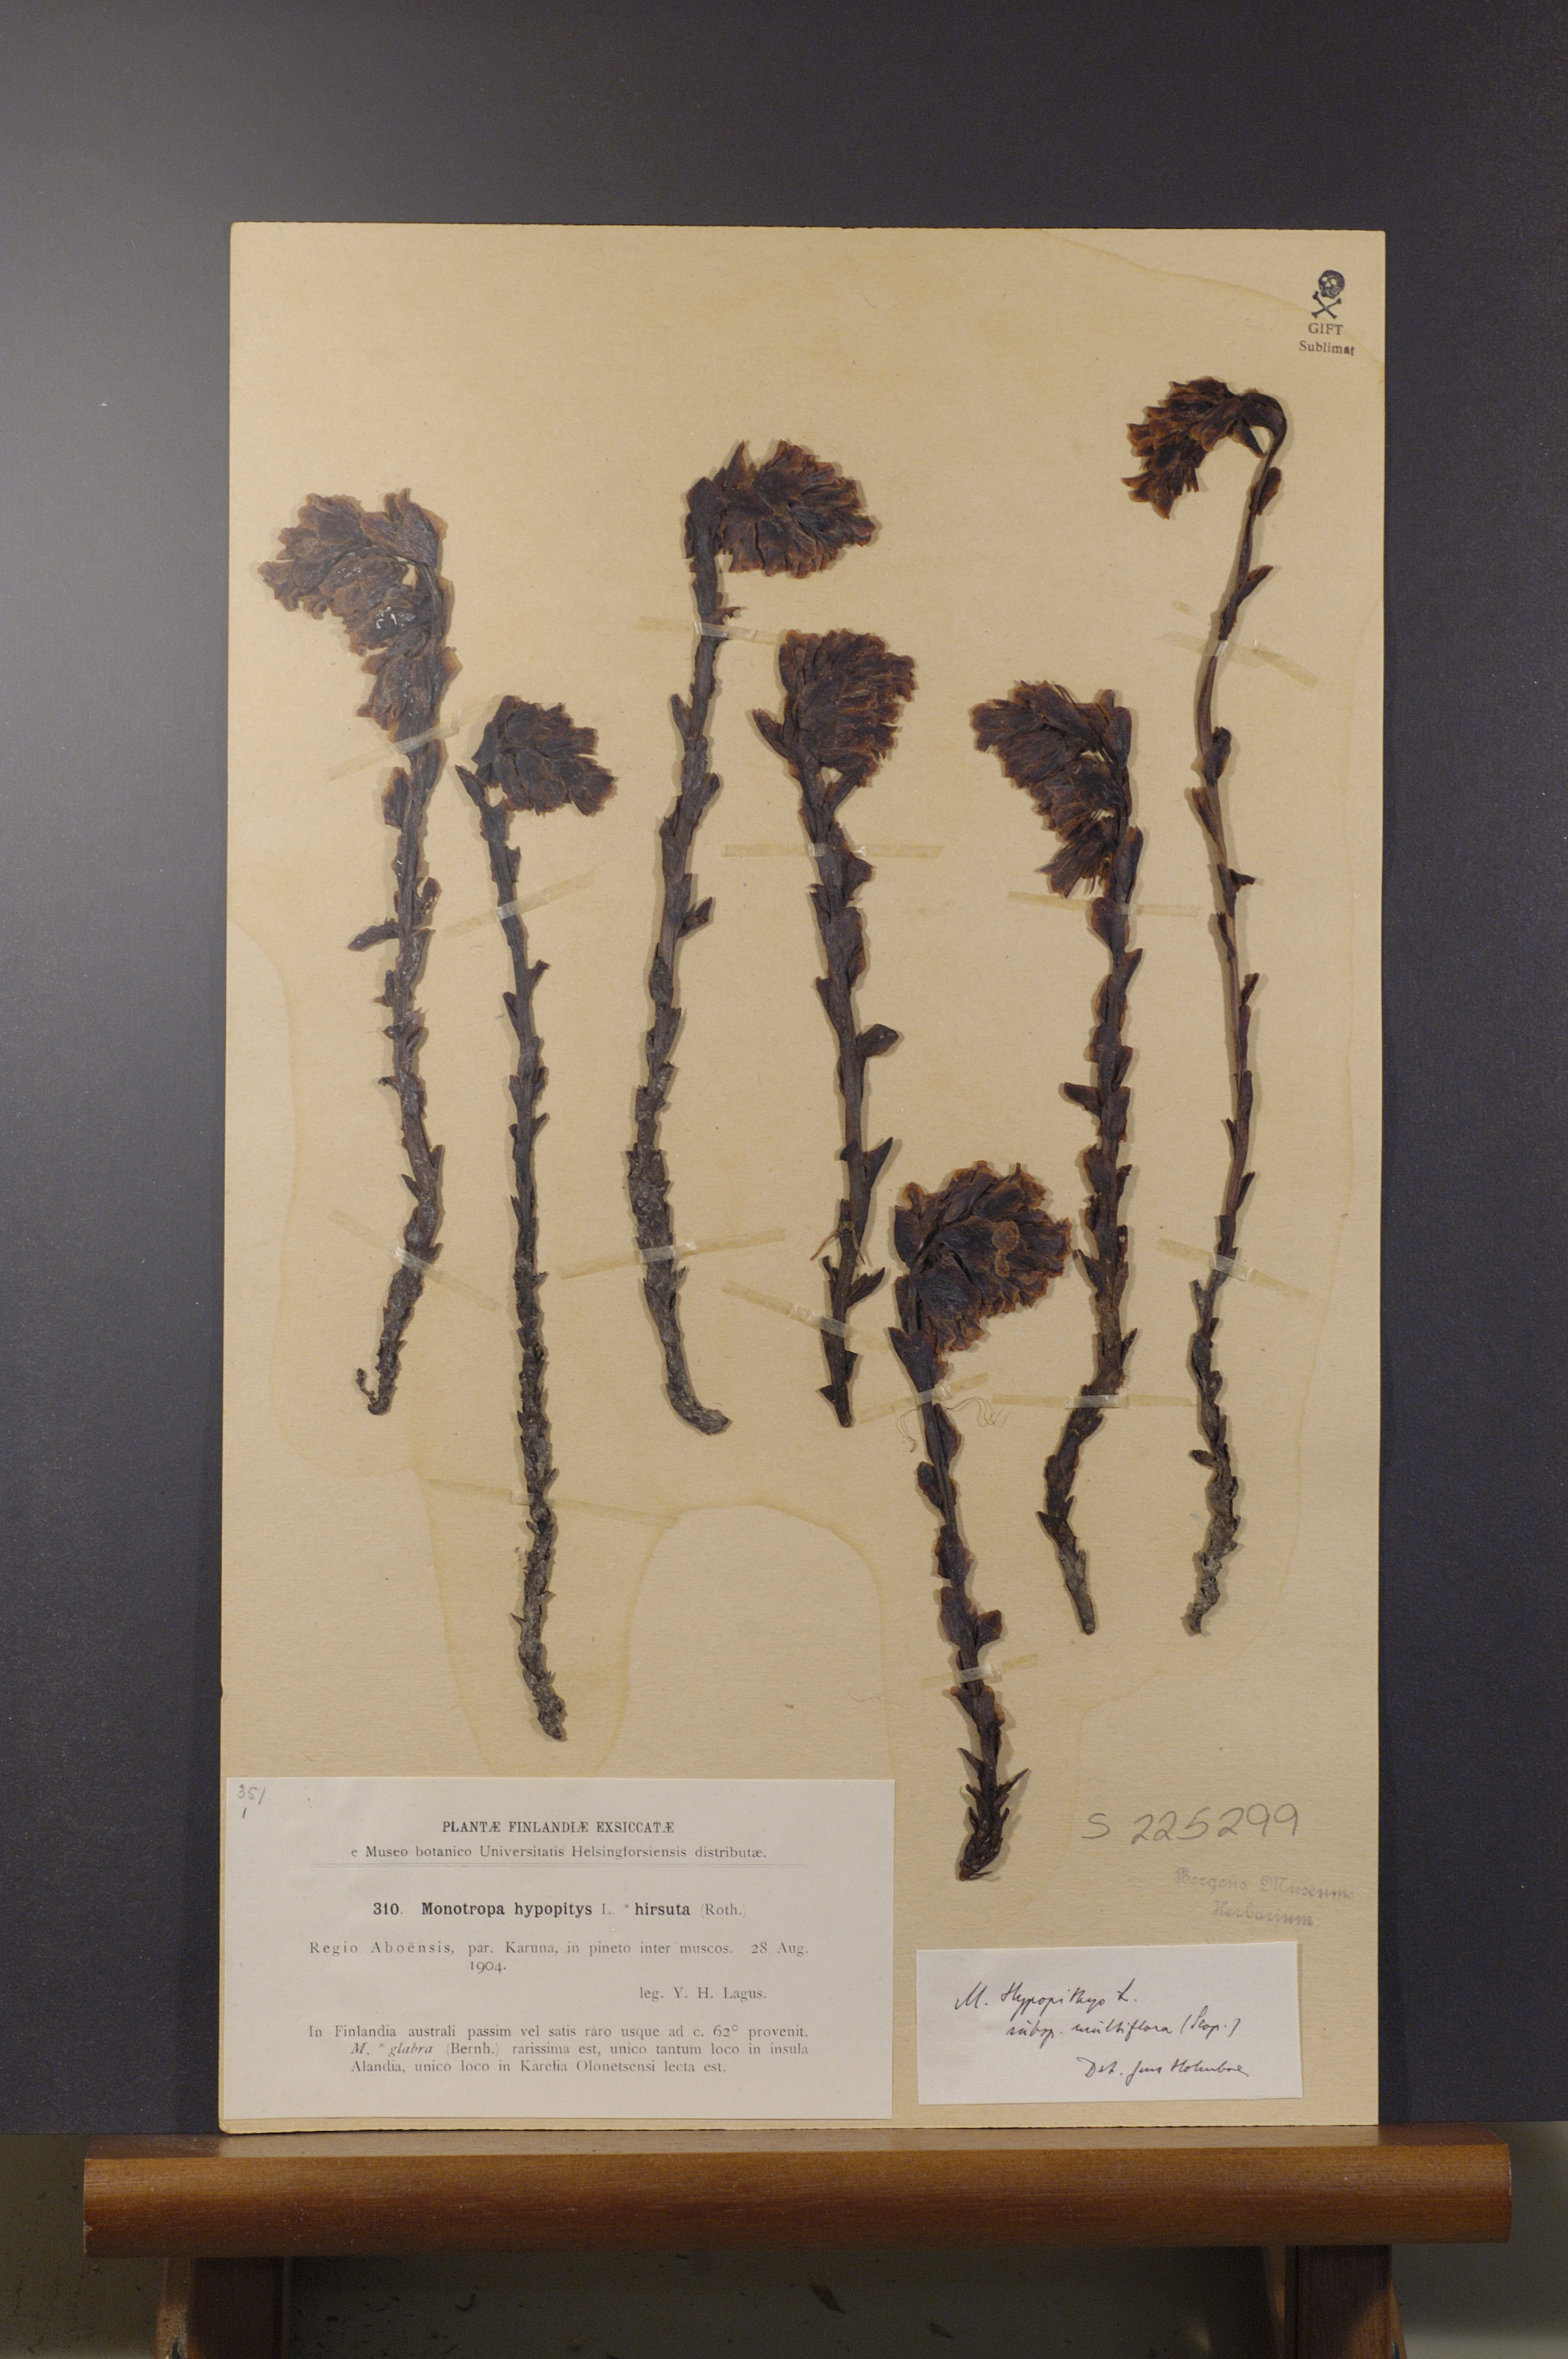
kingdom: Plantae
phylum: Tracheophyta
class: Magnoliopsida
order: Ericales
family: Ericaceae
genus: Hypopitys
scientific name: Hypopitys monotropa
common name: Yellow bird's-nest
